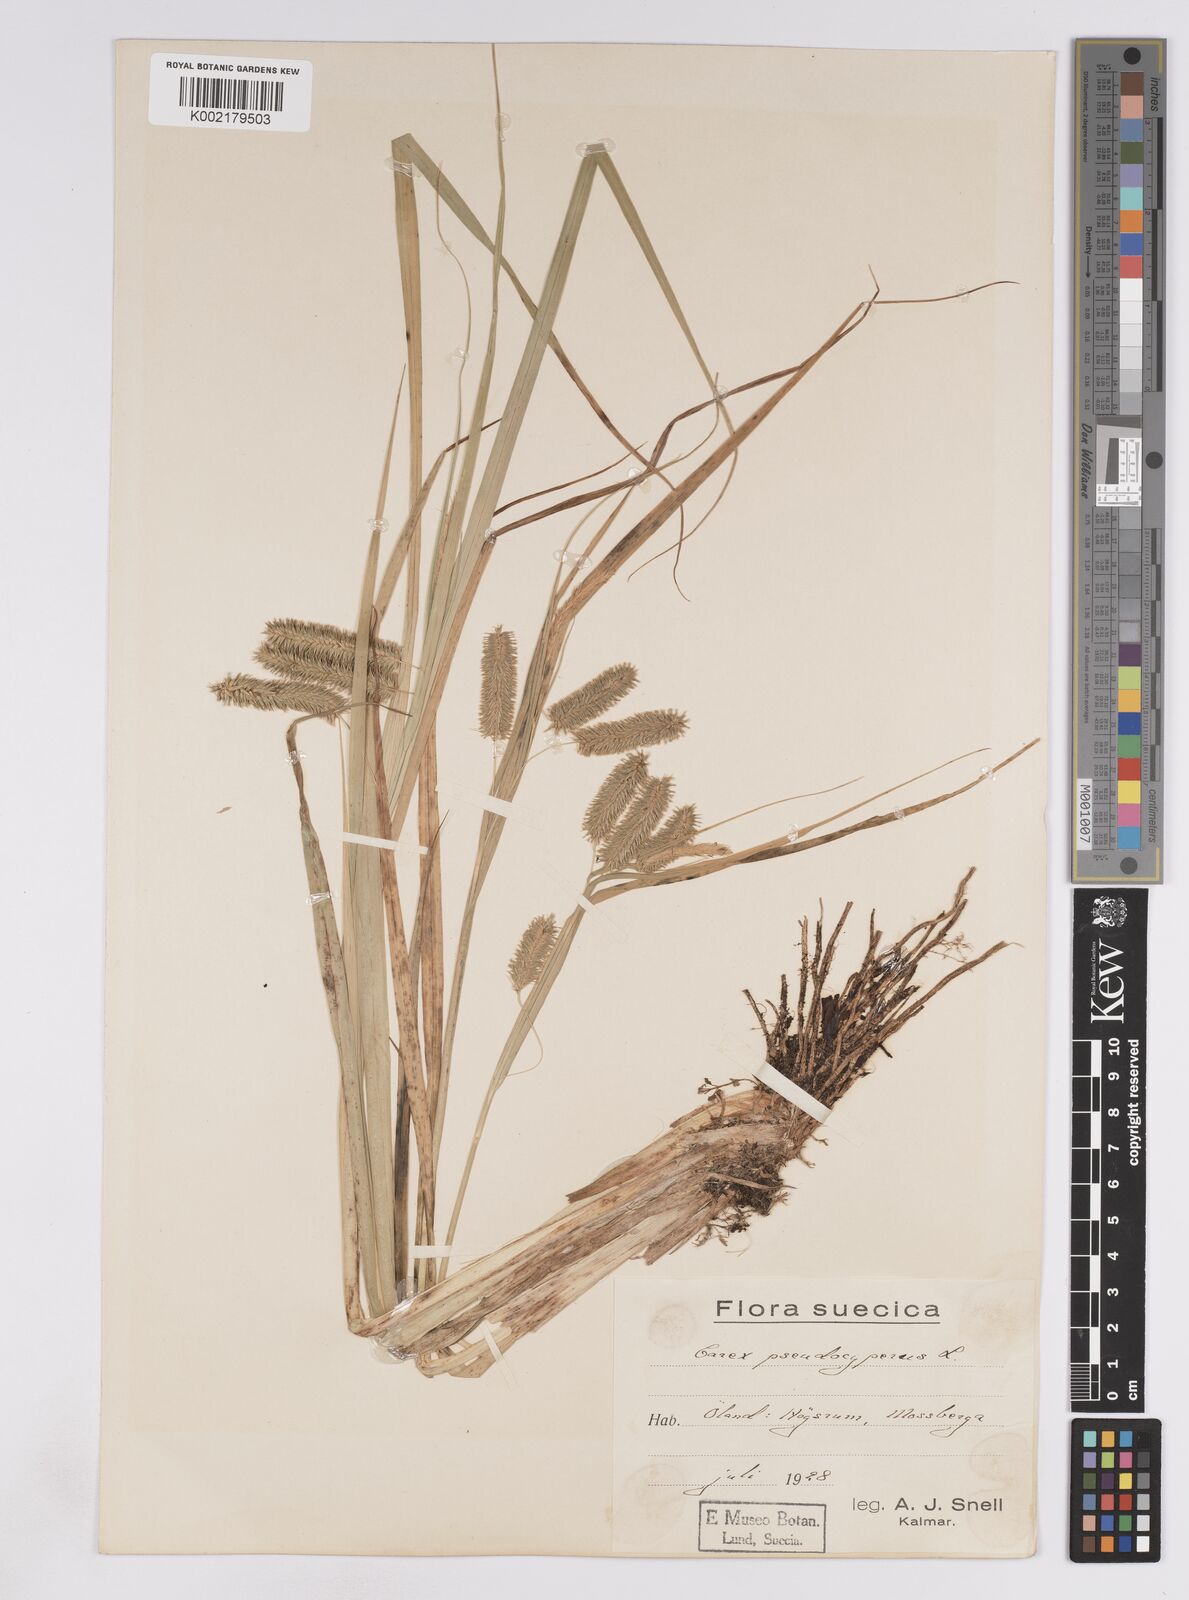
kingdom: Plantae
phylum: Tracheophyta
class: Liliopsida
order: Poales
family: Cyperaceae
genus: Carex
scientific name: Carex pseudocyperus
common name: Cyperus sedge
